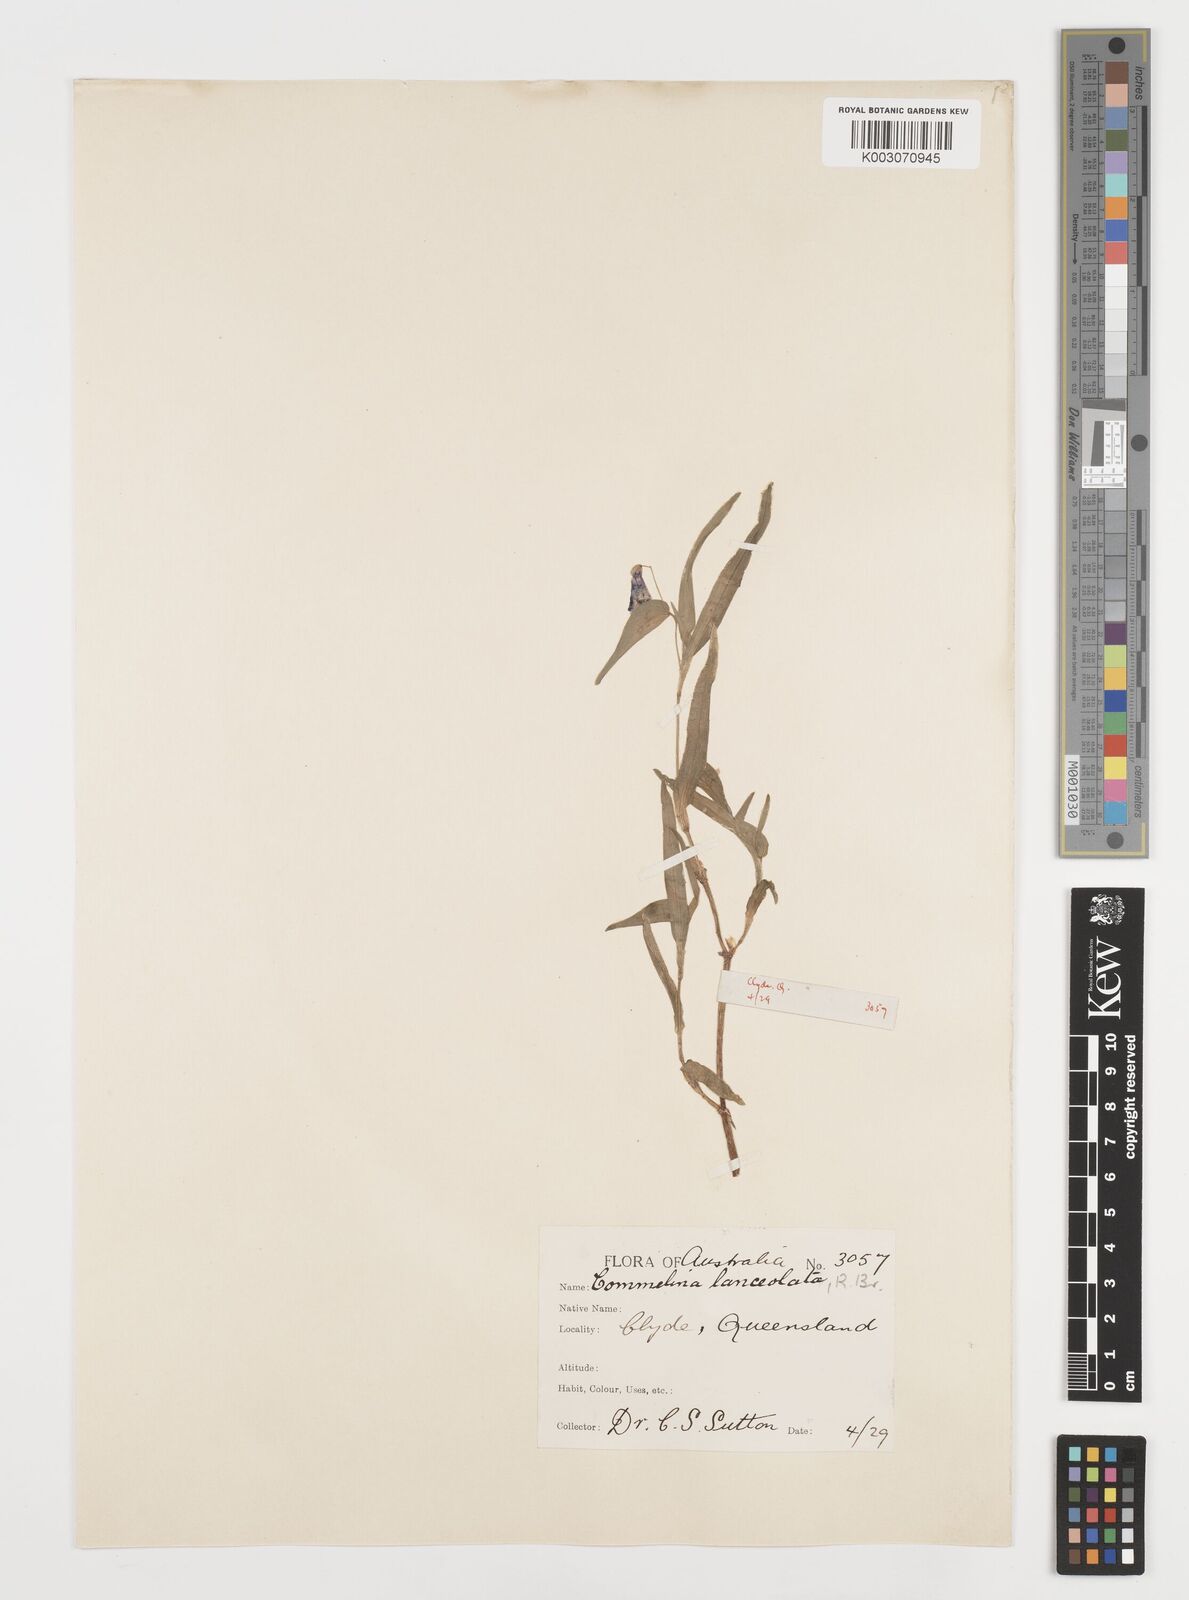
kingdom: Plantae
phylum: Tracheophyta
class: Liliopsida
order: Commelinales
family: Commelinaceae
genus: Commelina
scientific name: Commelina lanceolata
